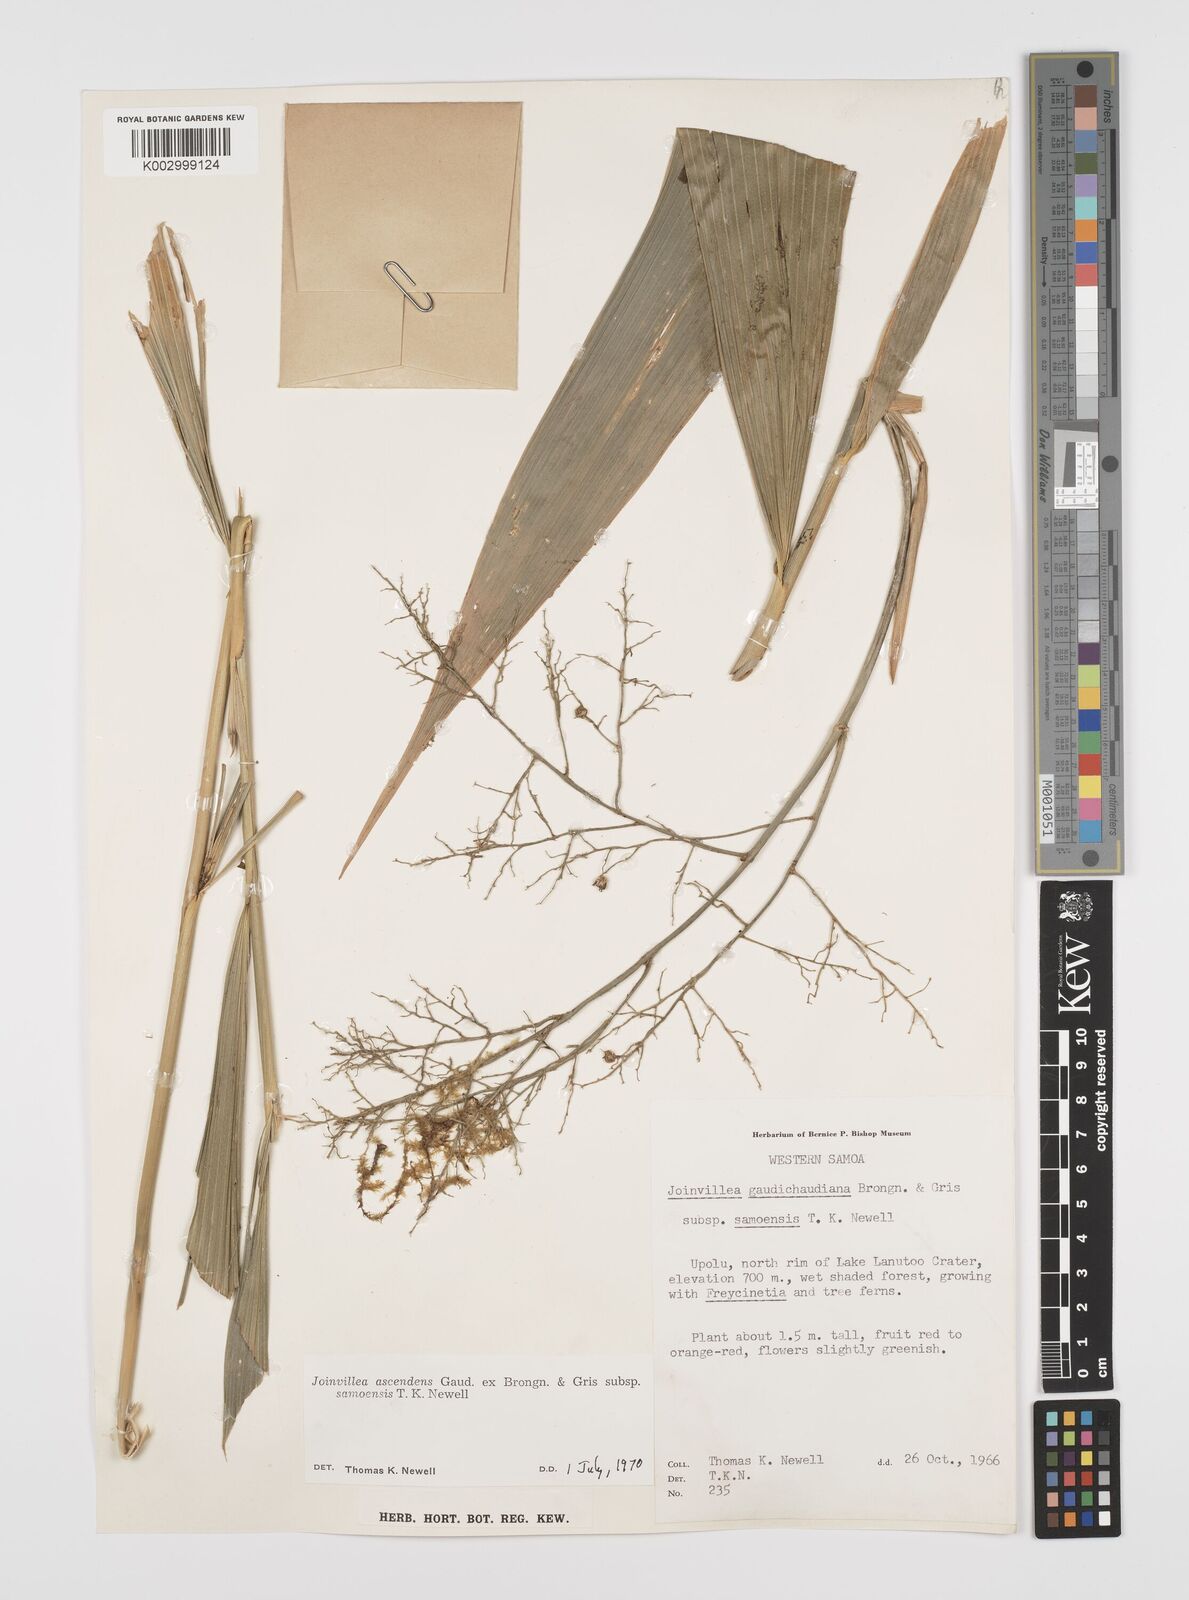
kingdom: Plantae
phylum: Tracheophyta
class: Liliopsida
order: Poales
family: Joinvilleaceae
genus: Joinvillea
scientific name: Joinvillea bryanii
